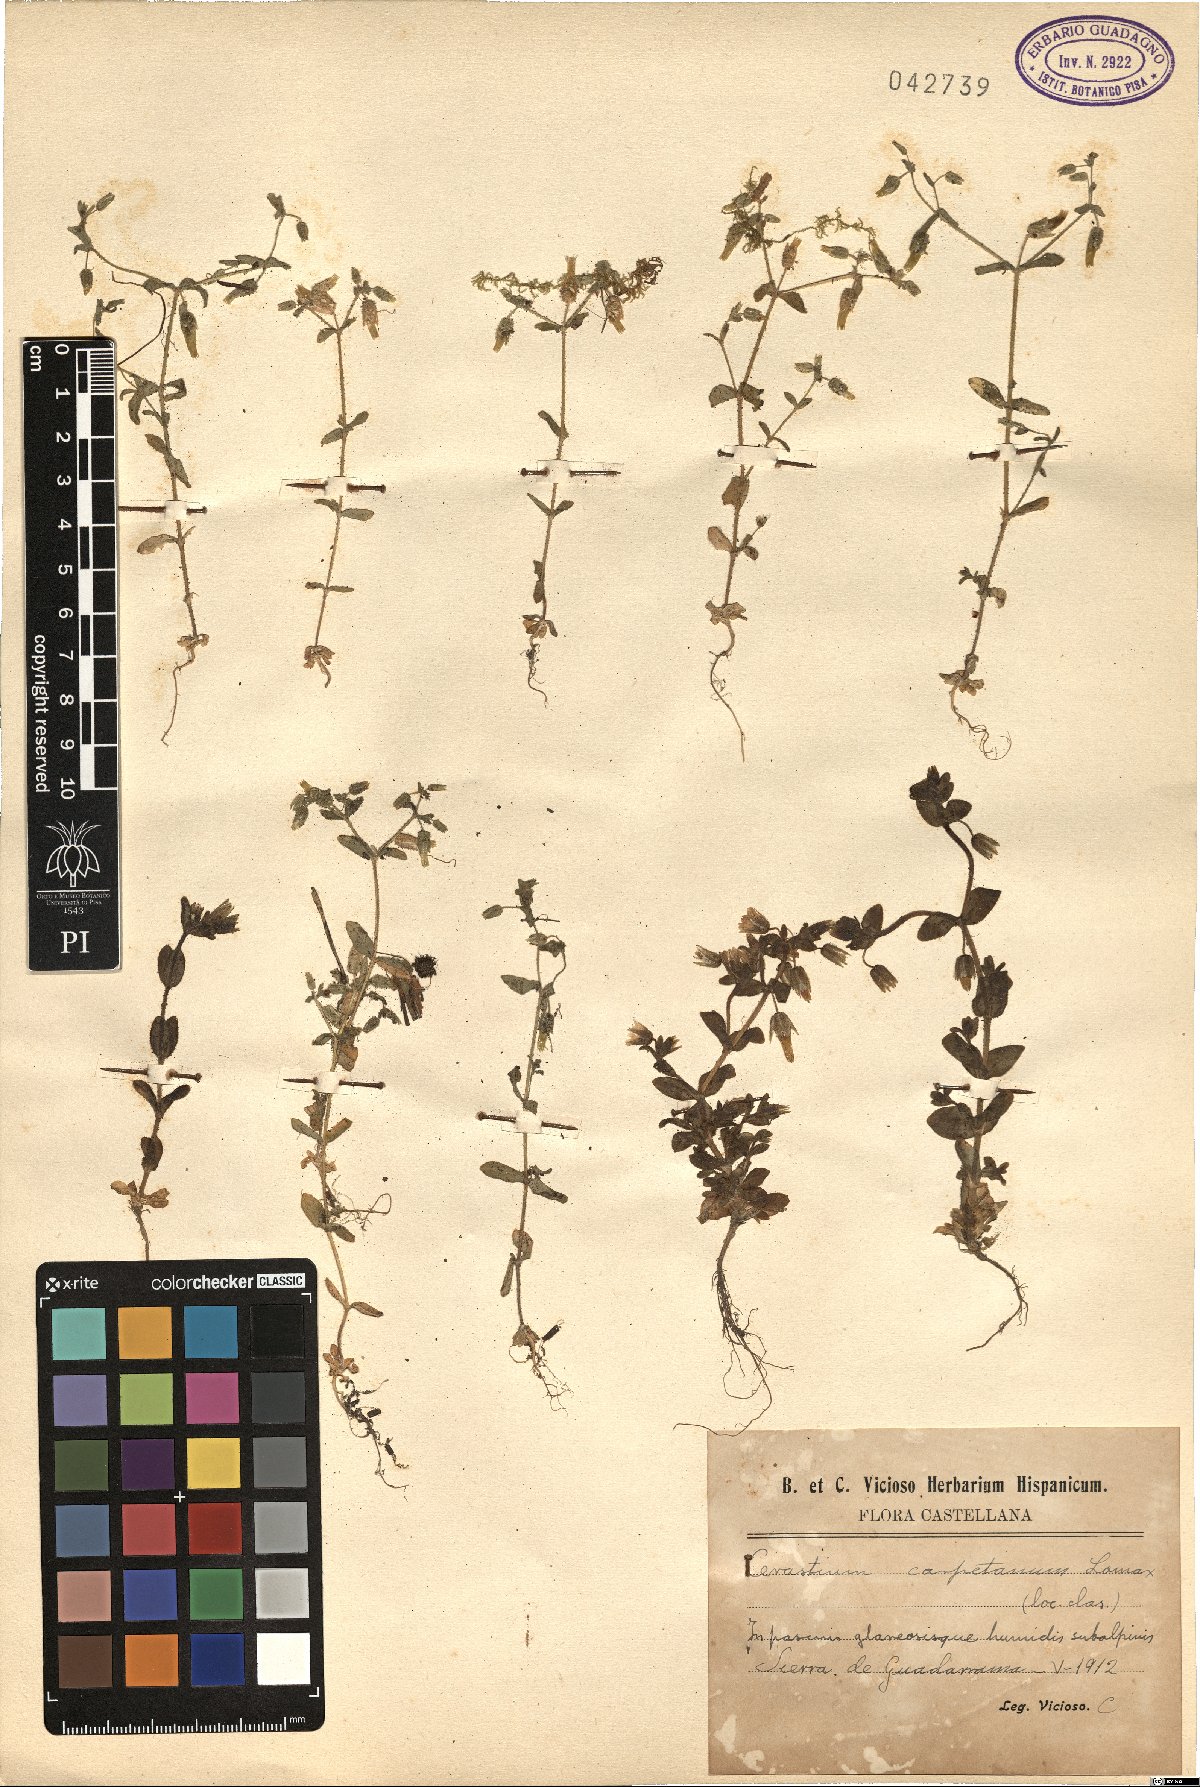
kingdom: Plantae
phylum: Tracheophyta
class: Magnoliopsida
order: Caryophyllales
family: Caryophyllaceae
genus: Cerastium
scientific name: Cerastium ramosissimum
